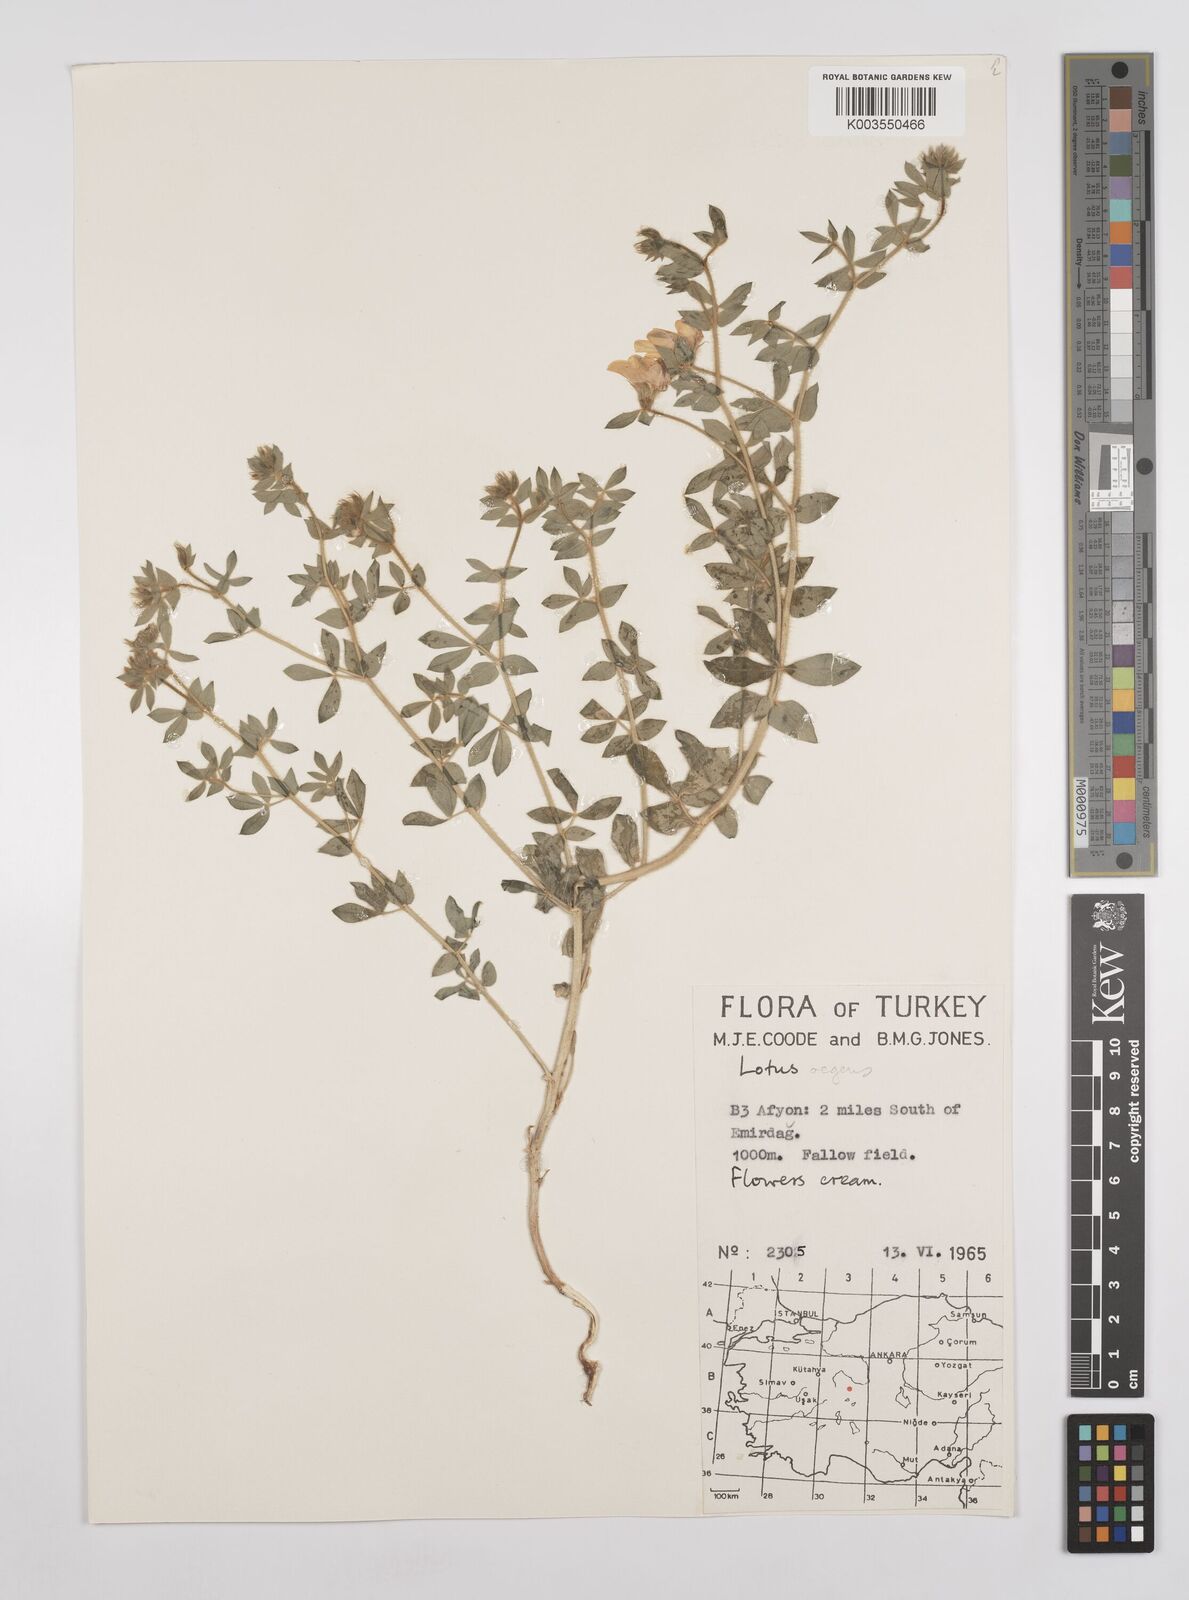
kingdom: Plantae
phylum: Tracheophyta
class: Magnoliopsida
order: Fabales
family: Fabaceae
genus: Lotus
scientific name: Lotus aegaeus
